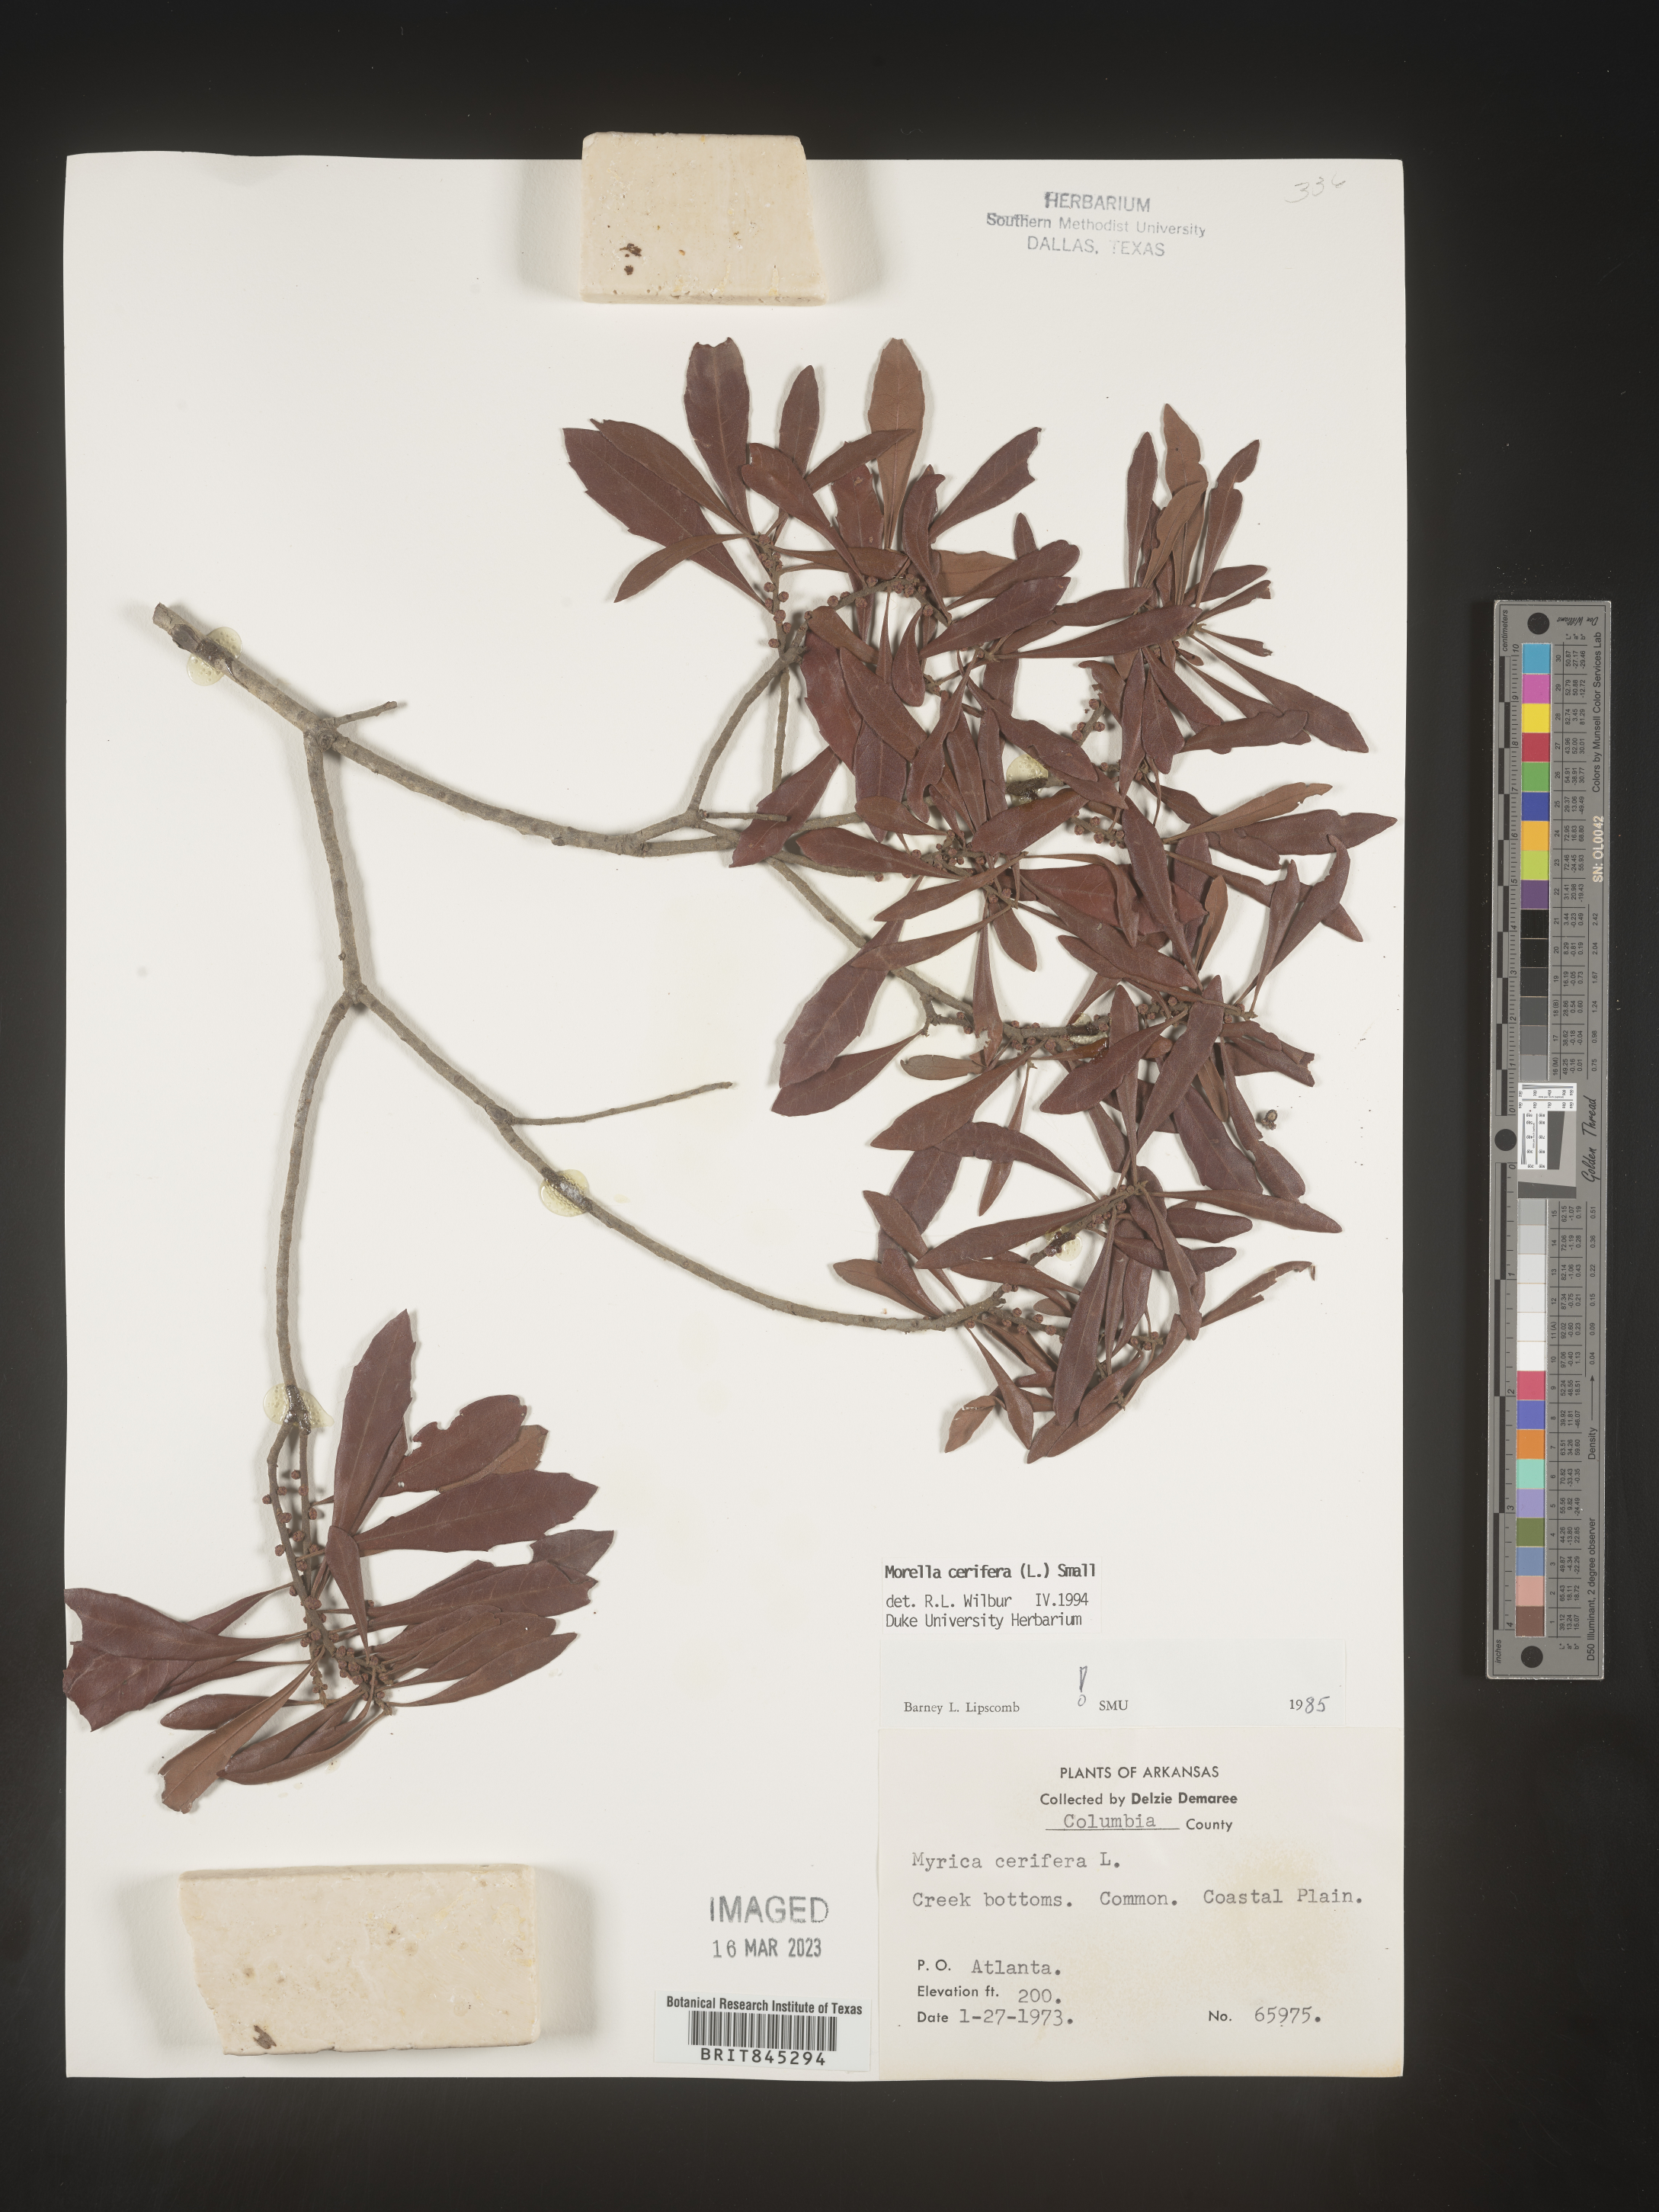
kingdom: Plantae
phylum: Tracheophyta
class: Magnoliopsida
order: Fagales
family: Myricaceae
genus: Morella
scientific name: Morella cerifera
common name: Wax myrtle
